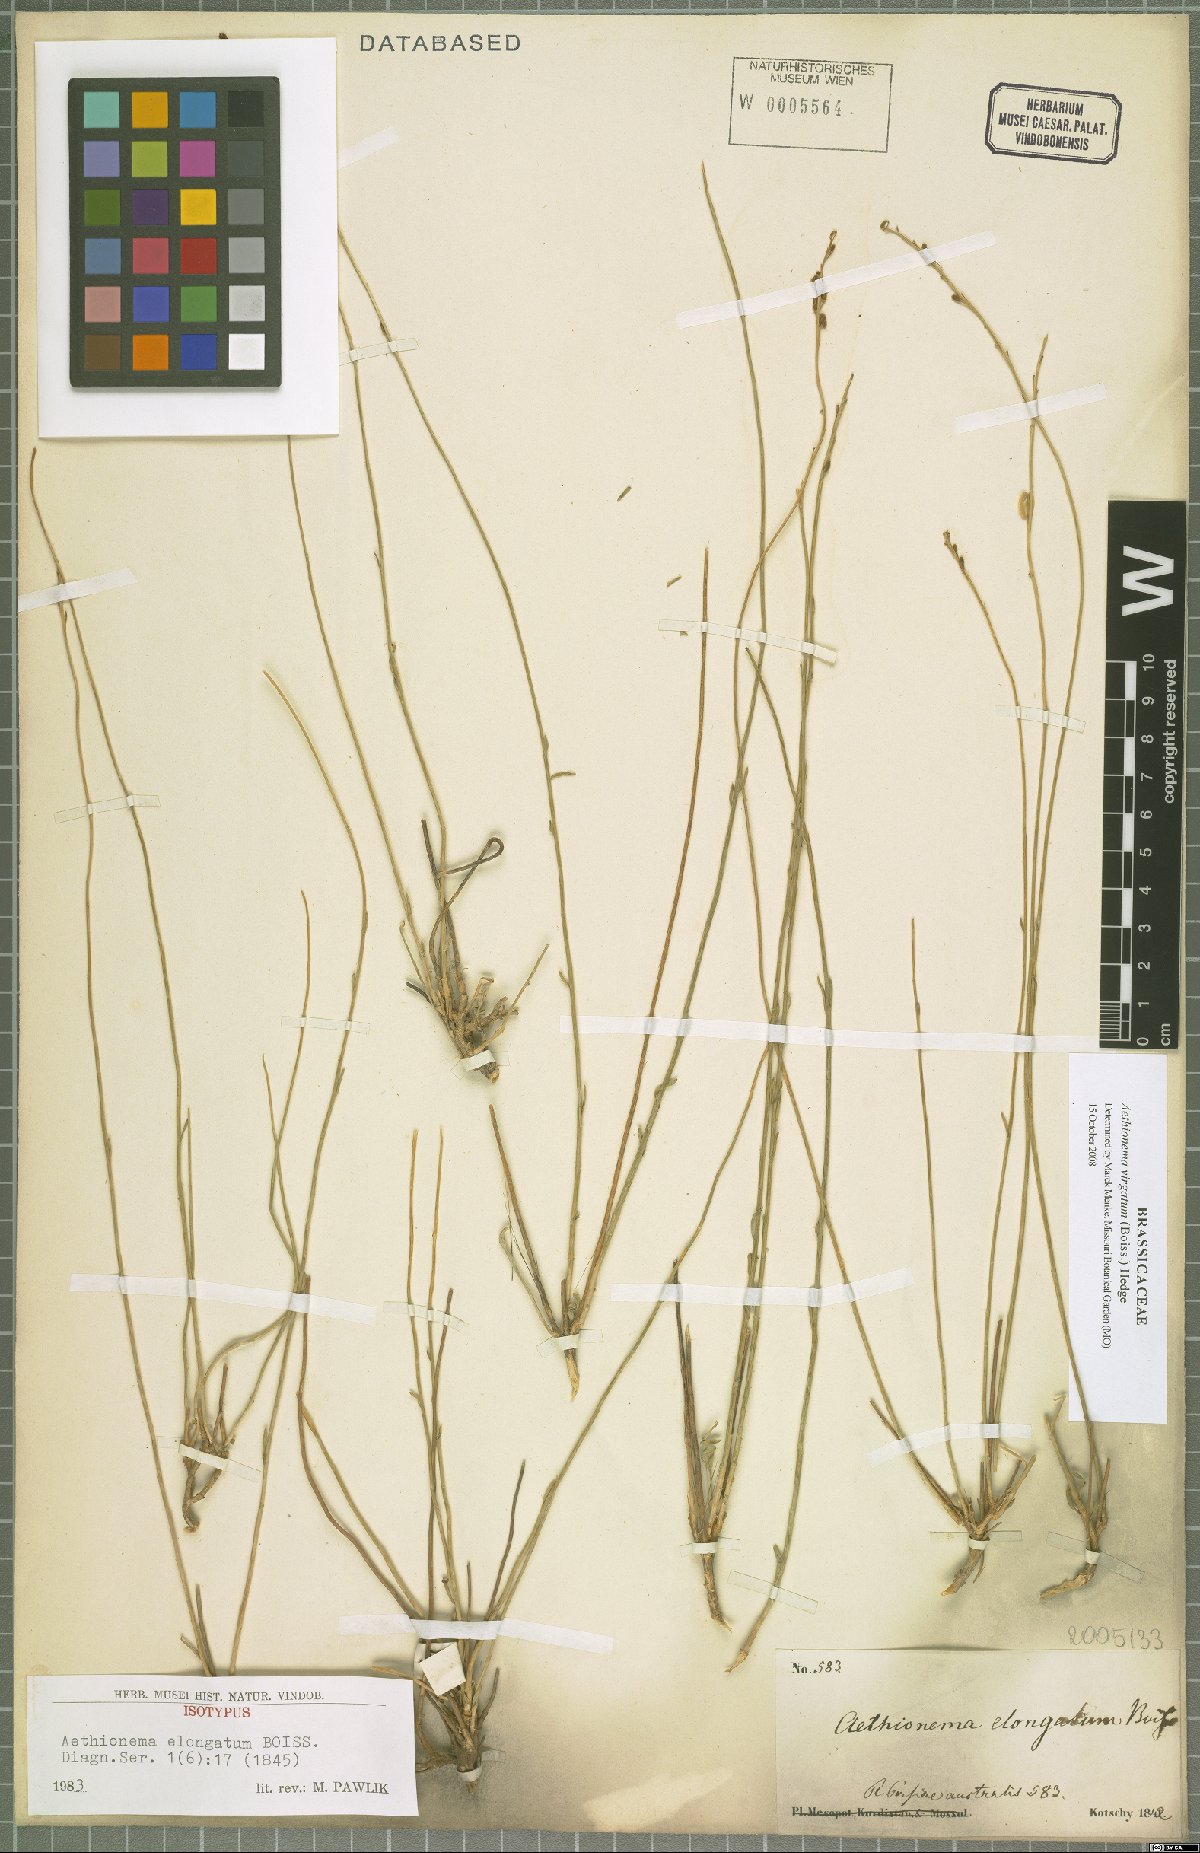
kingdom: Plantae
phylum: Tracheophyta
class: Magnoliopsida
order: Brassicales
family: Brassicaceae
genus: Aethionema
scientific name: Aethionema virgatum
